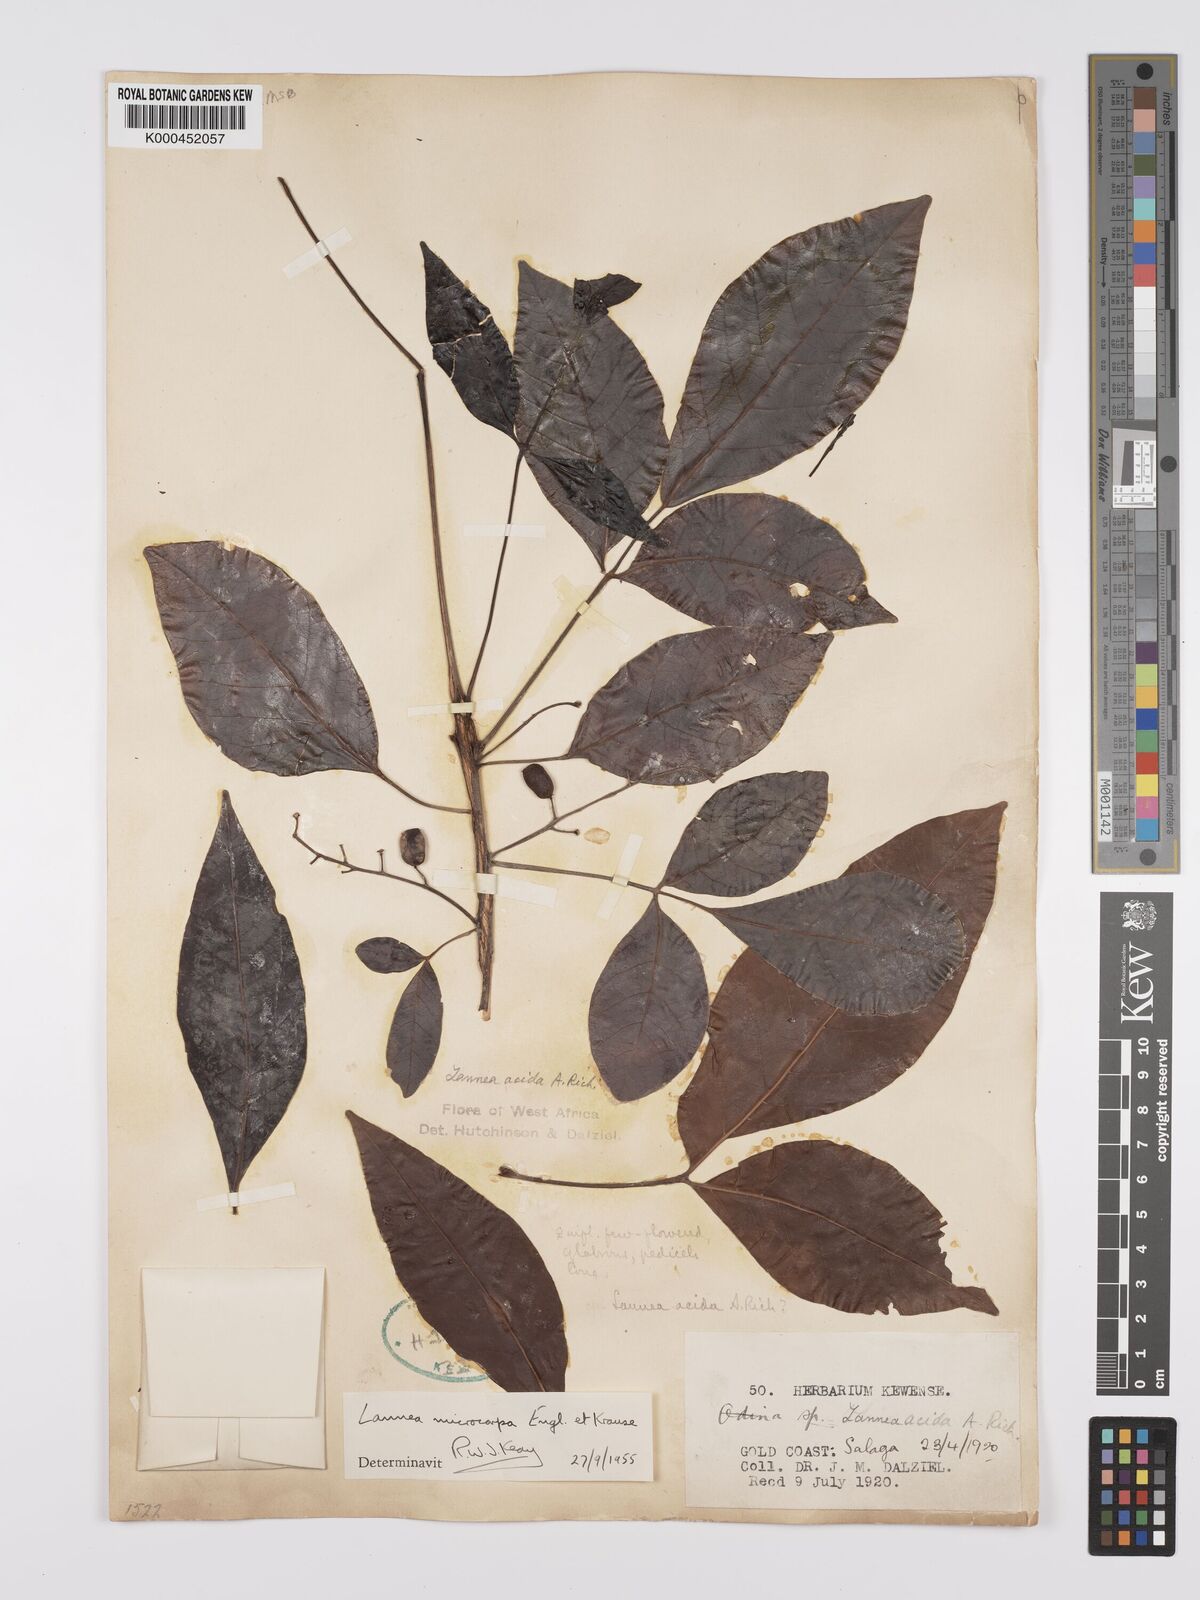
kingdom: Plantae
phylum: Tracheophyta
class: Magnoliopsida
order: Sapindales
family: Anacardiaceae
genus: Lannea
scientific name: Lannea microcarpa
